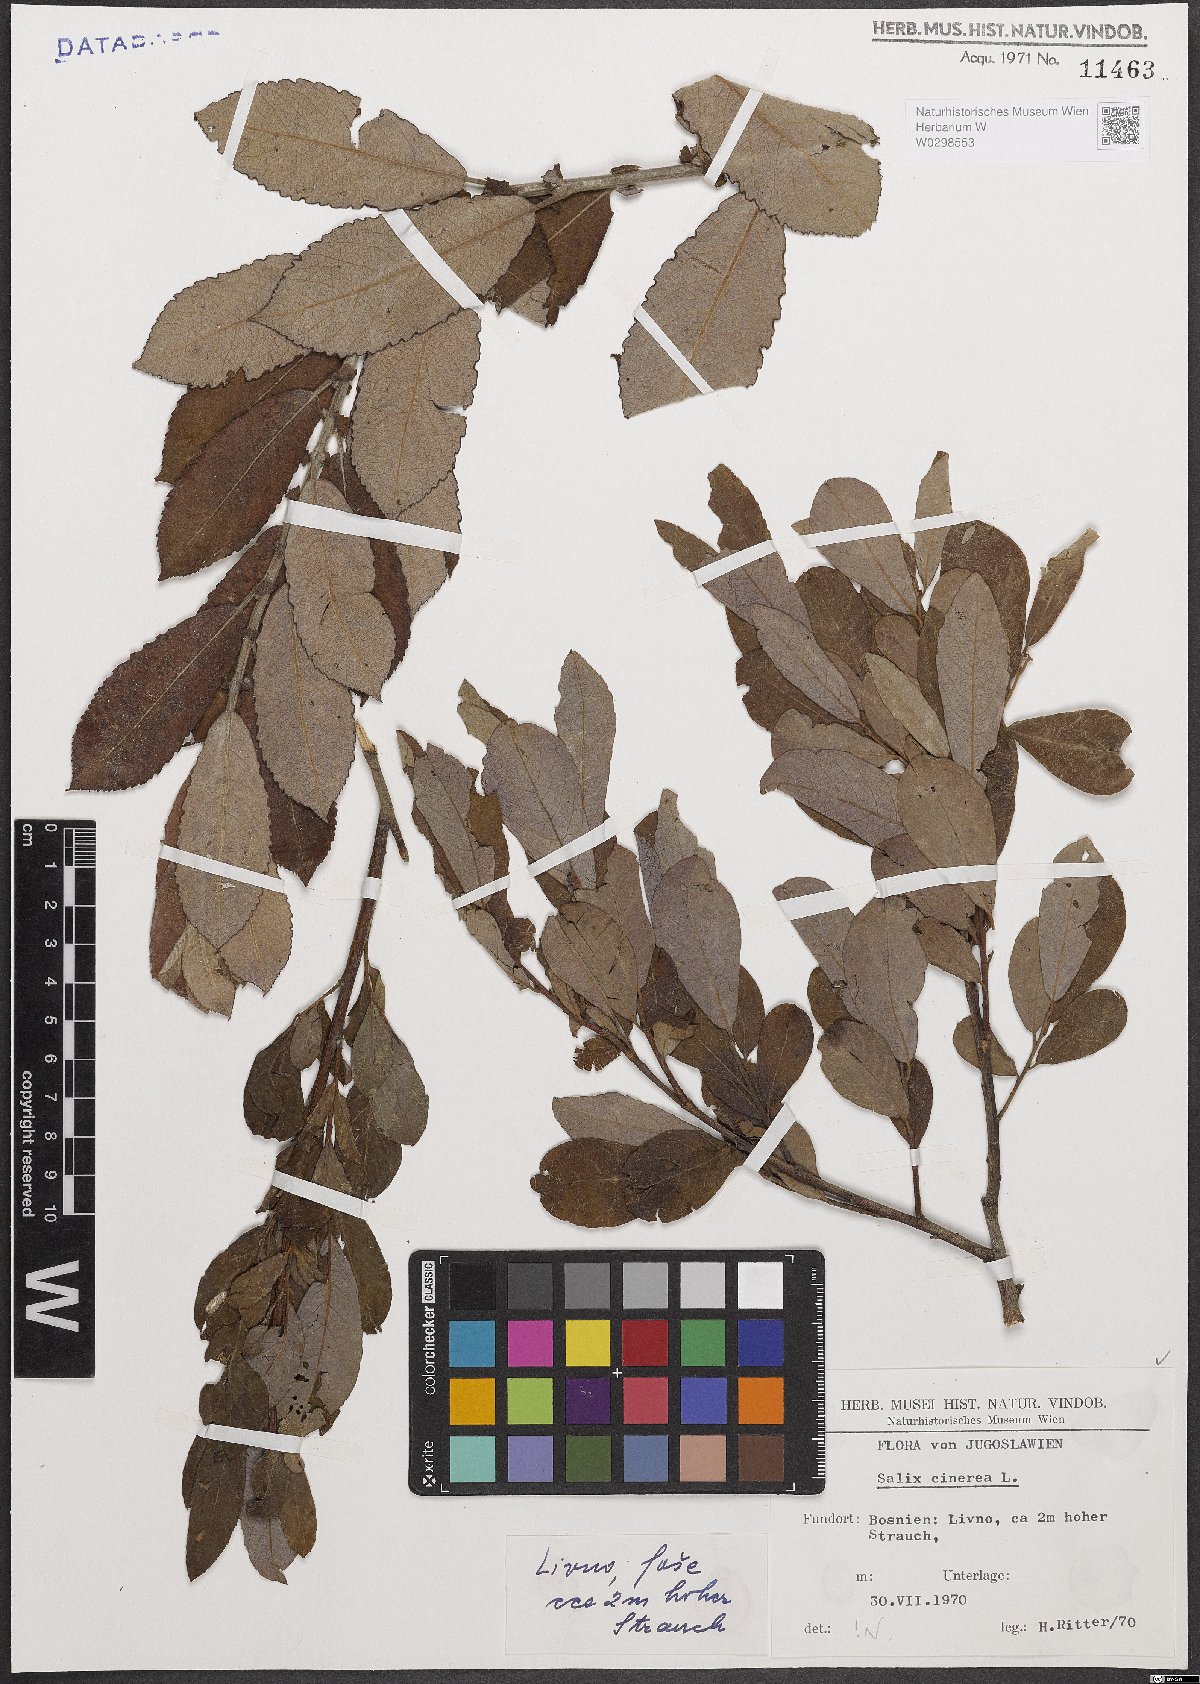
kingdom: Plantae
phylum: Tracheophyta
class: Magnoliopsida
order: Malpighiales
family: Salicaceae
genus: Salix
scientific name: Salix cinerea
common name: Common sallow
